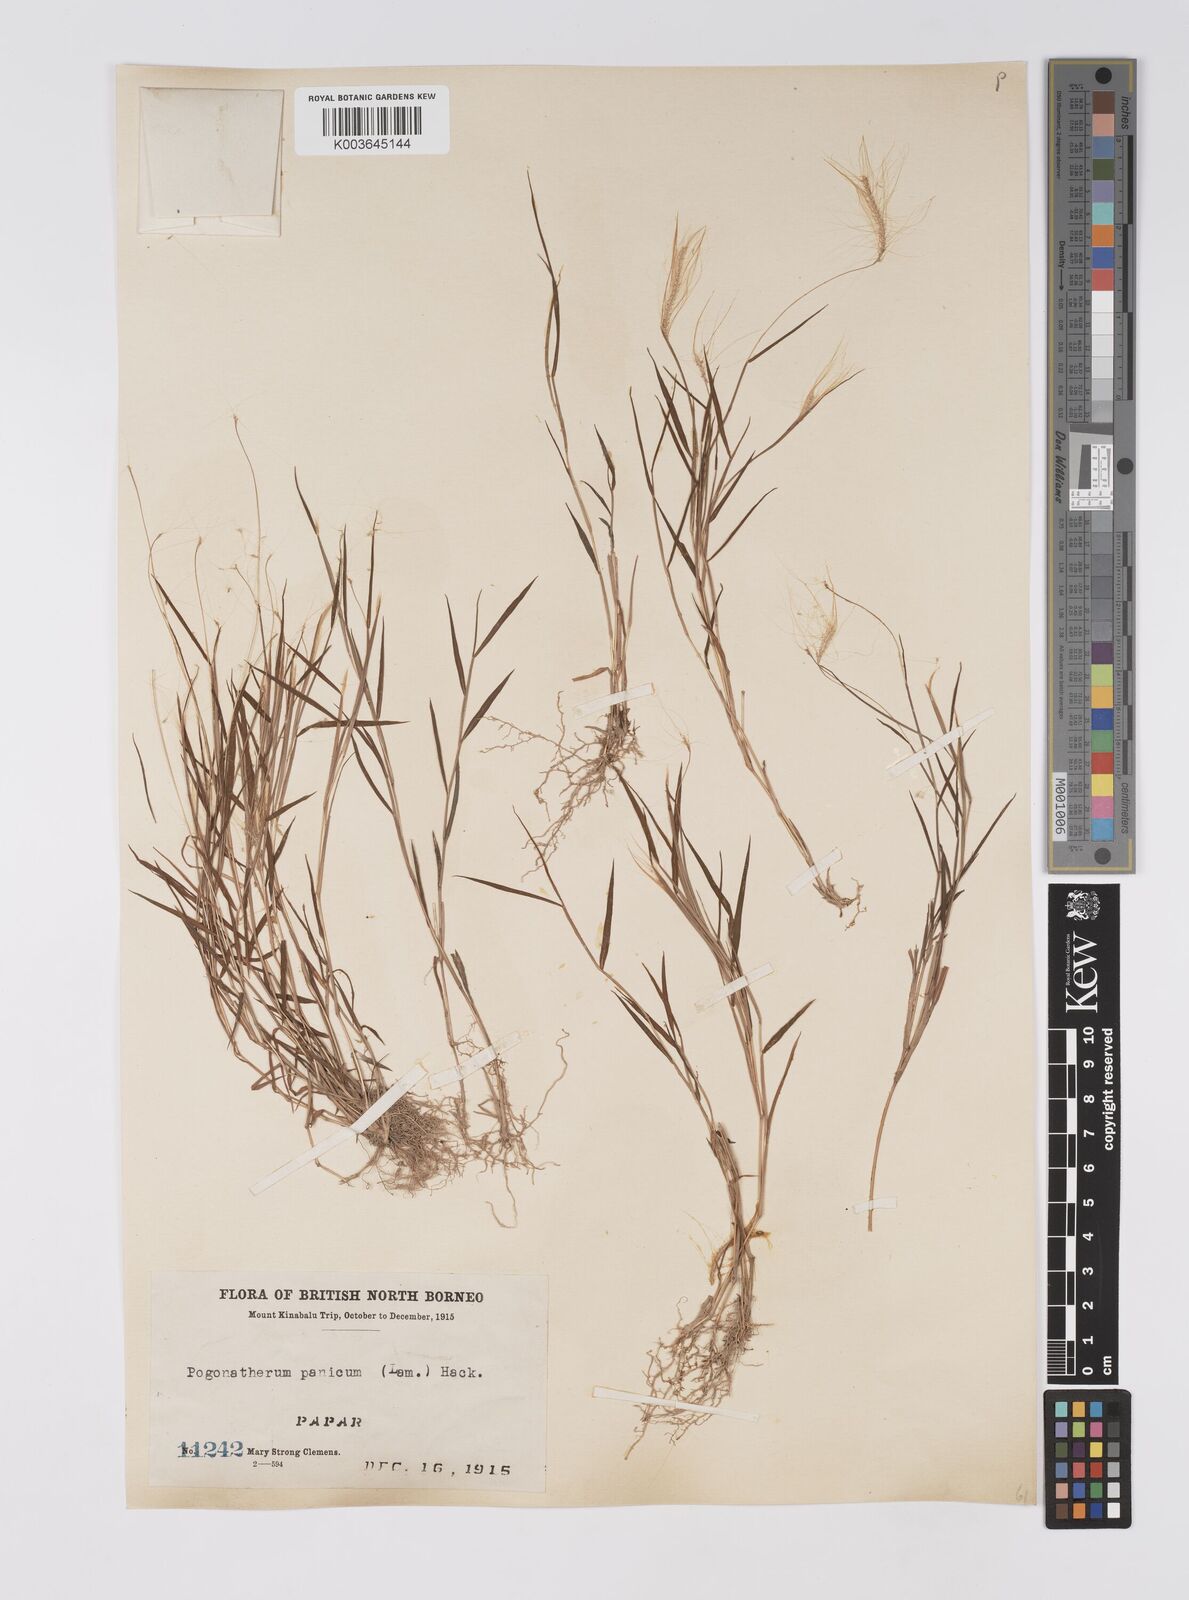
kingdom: Plantae
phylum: Tracheophyta
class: Liliopsida
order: Poales
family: Poaceae
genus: Pogonatherum
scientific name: Pogonatherum crinitum
